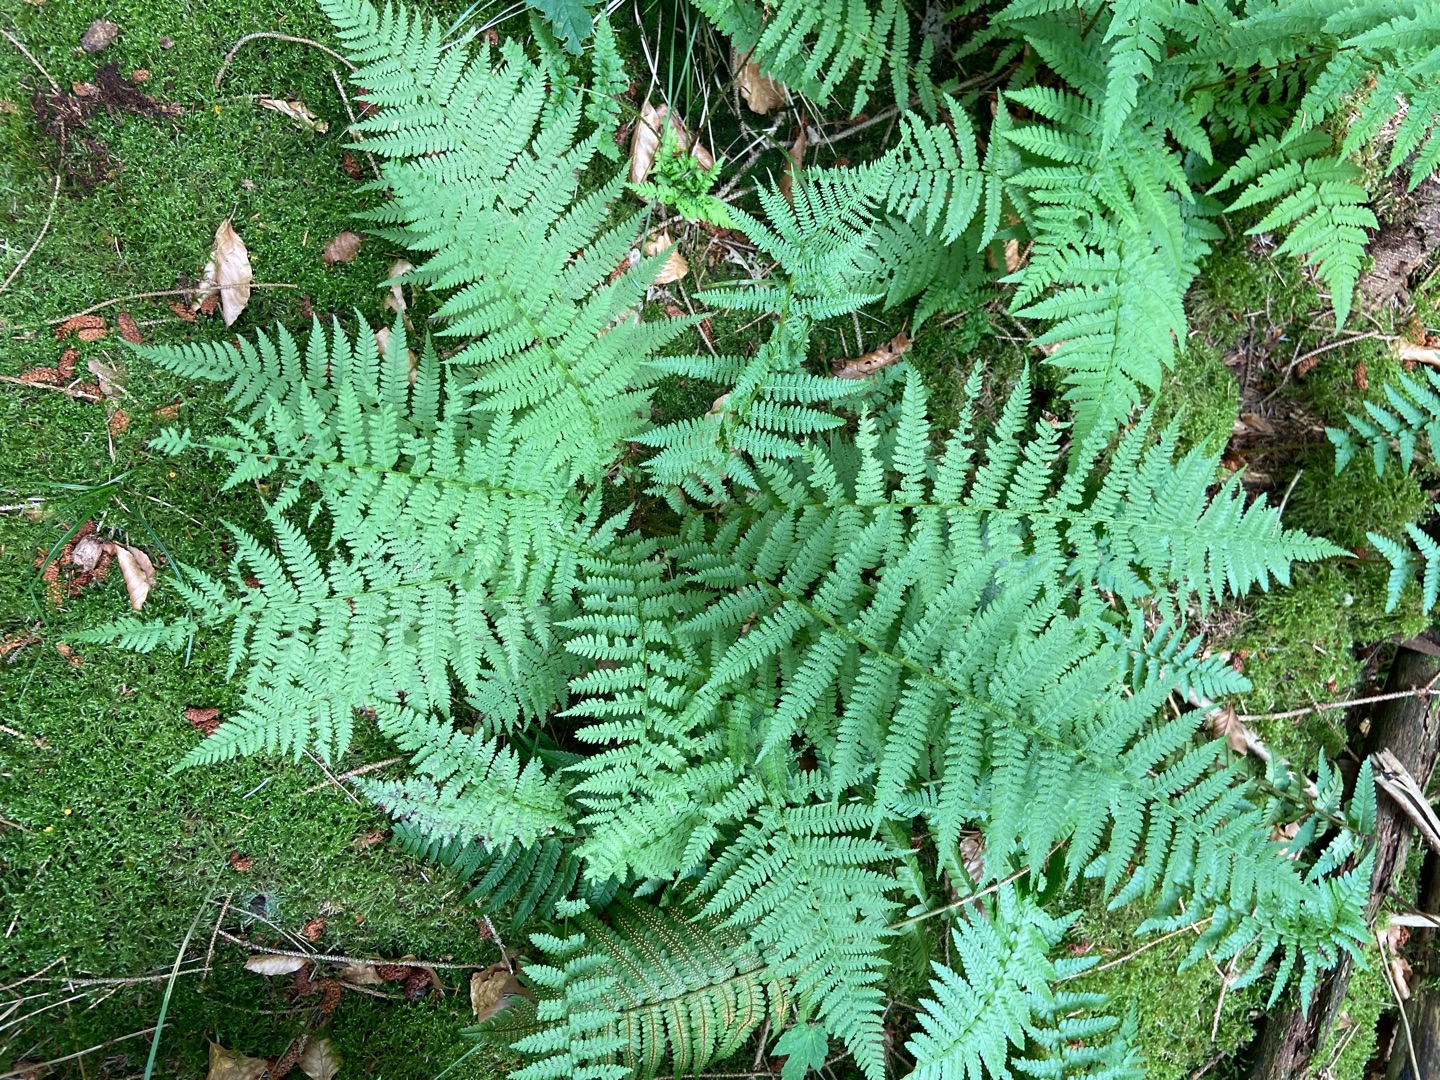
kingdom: Plantae
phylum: Tracheophyta
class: Polypodiopsida
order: Polypodiales
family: Athyriaceae
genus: Athyrium
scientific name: Athyrium filix-femina
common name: Fjerbregne
